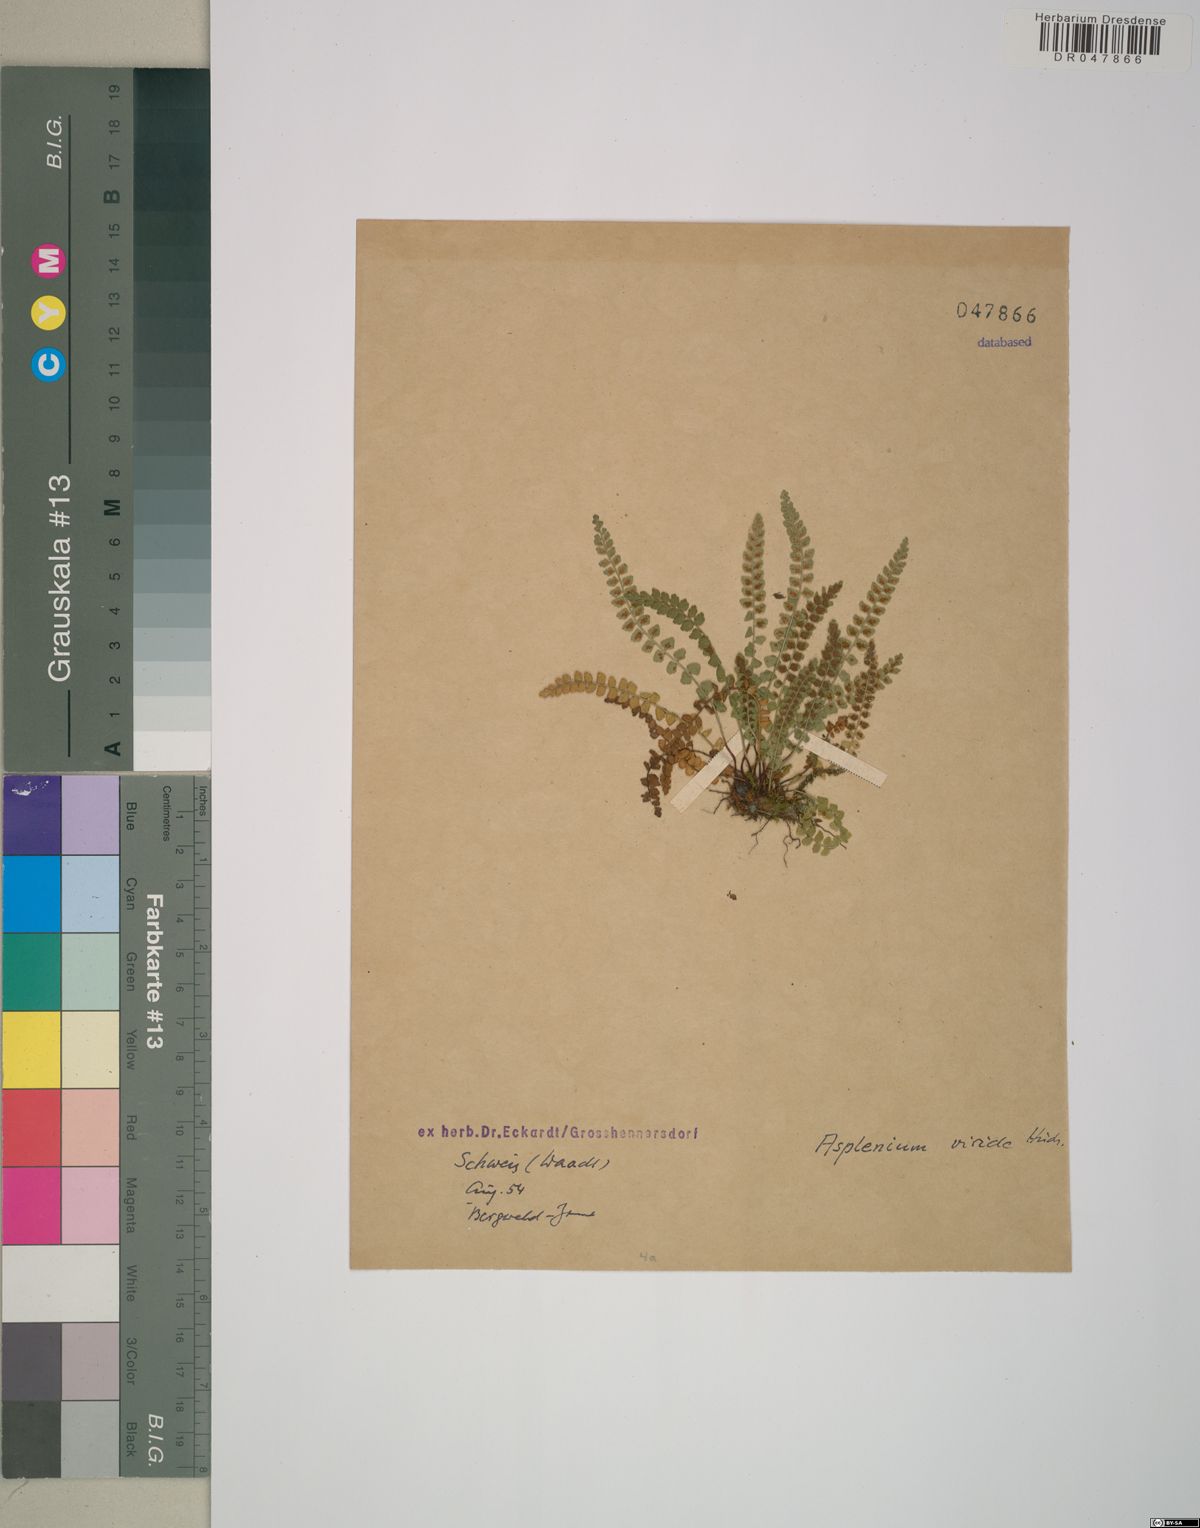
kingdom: Plantae
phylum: Tracheophyta
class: Polypodiopsida
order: Polypodiales
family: Aspleniaceae
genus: Asplenium
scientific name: Asplenium viride
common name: Green spleenwort
